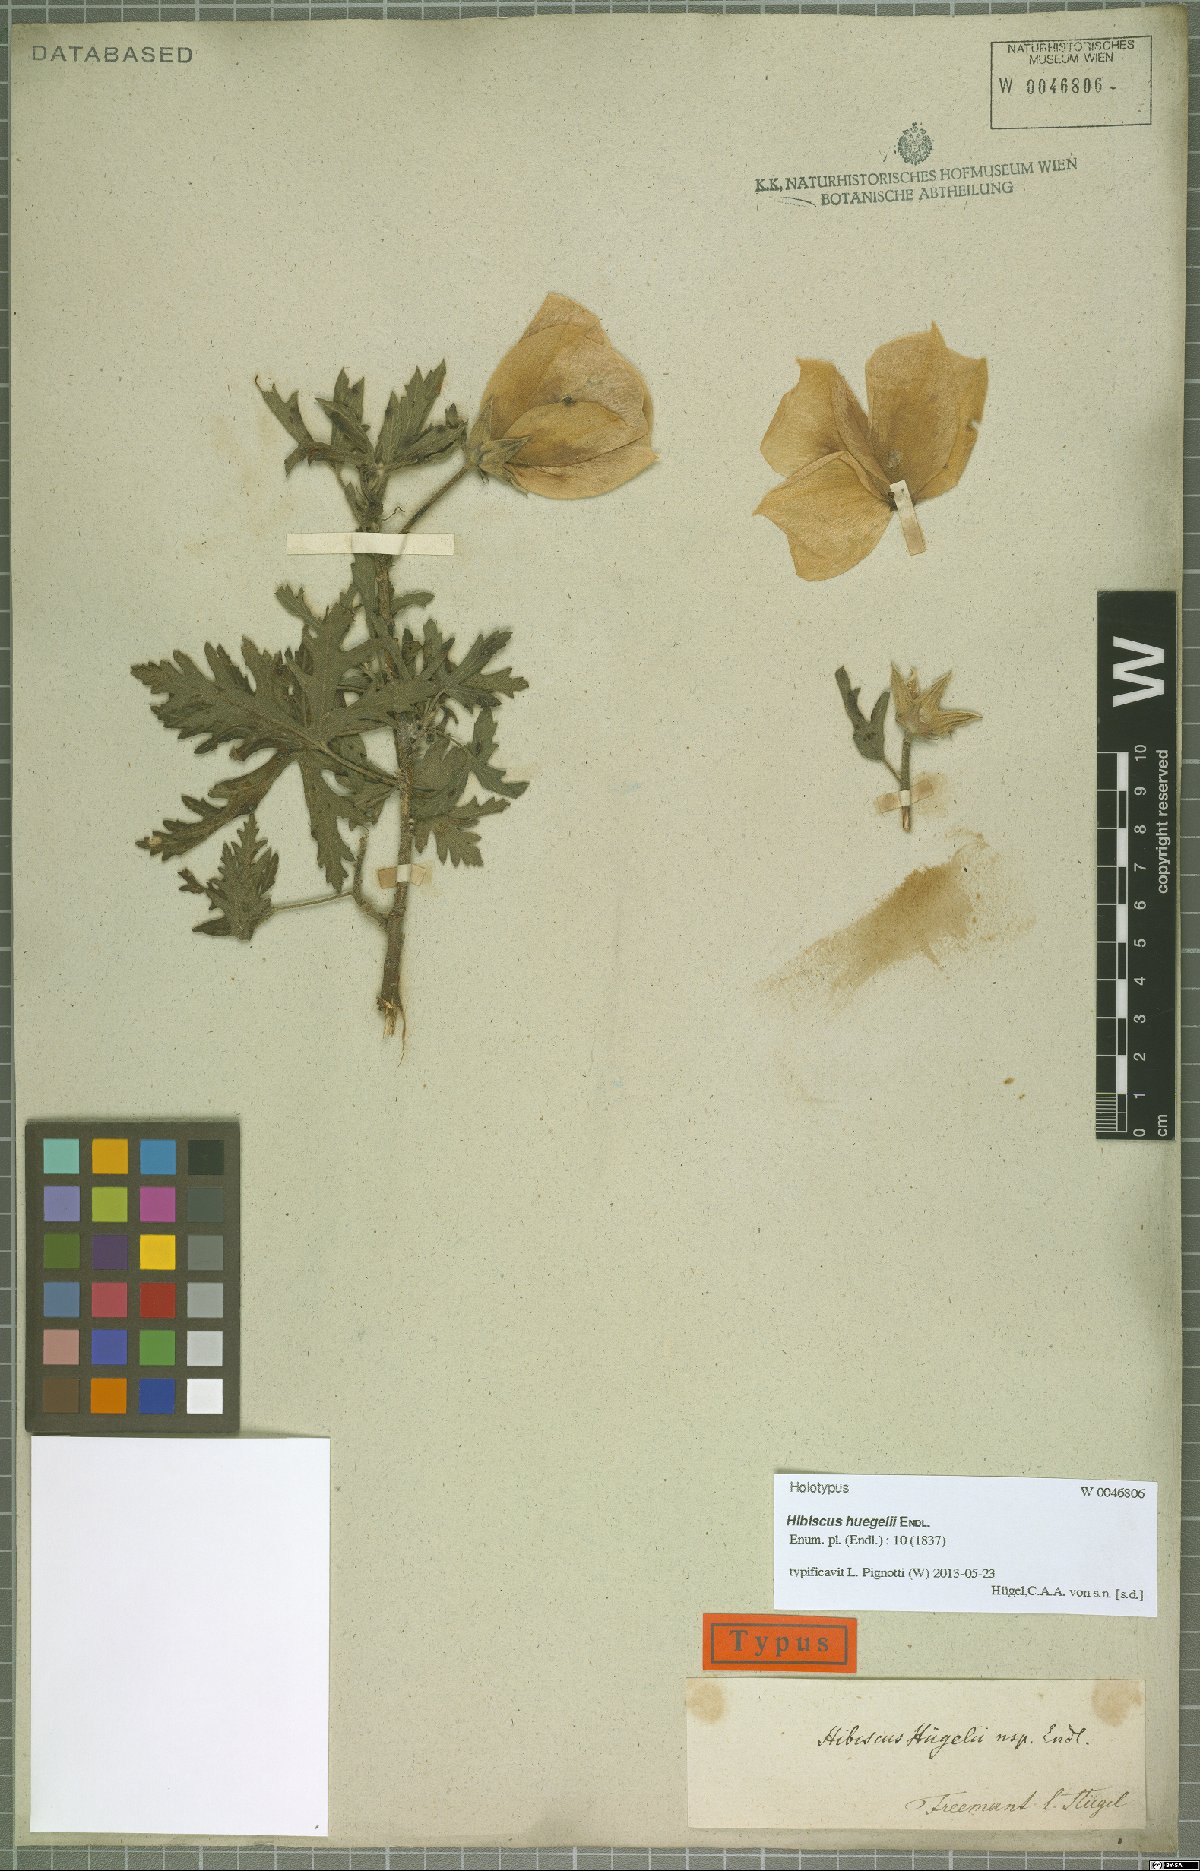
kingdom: Plantae
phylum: Tracheophyta
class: Magnoliopsida
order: Malvales
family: Malvaceae
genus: Hibiscus
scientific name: Hibiscus huegelii
